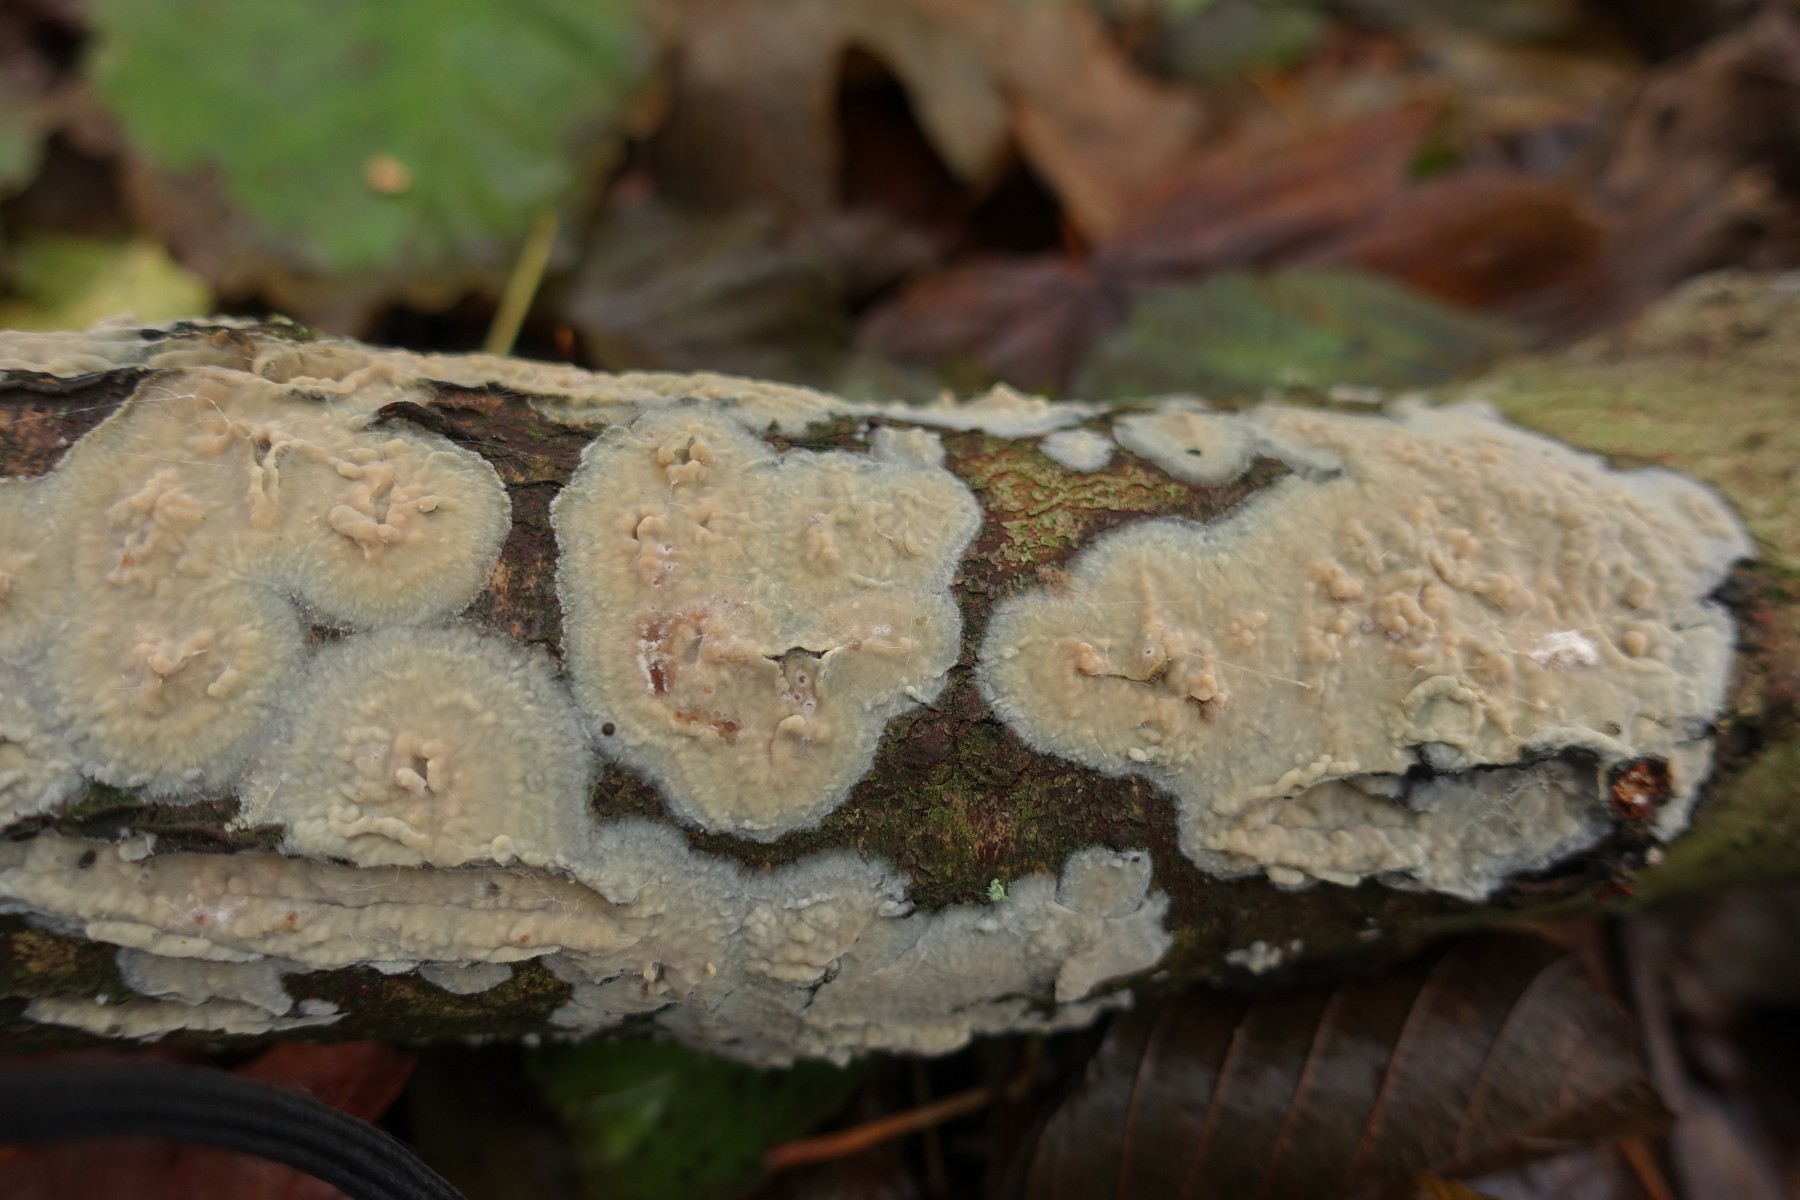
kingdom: Fungi
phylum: Basidiomycota
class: Agaricomycetes
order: Agaricales
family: Radulomycetaceae
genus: Radulomyces
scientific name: Radulomyces confluens
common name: glat naftalinskind
